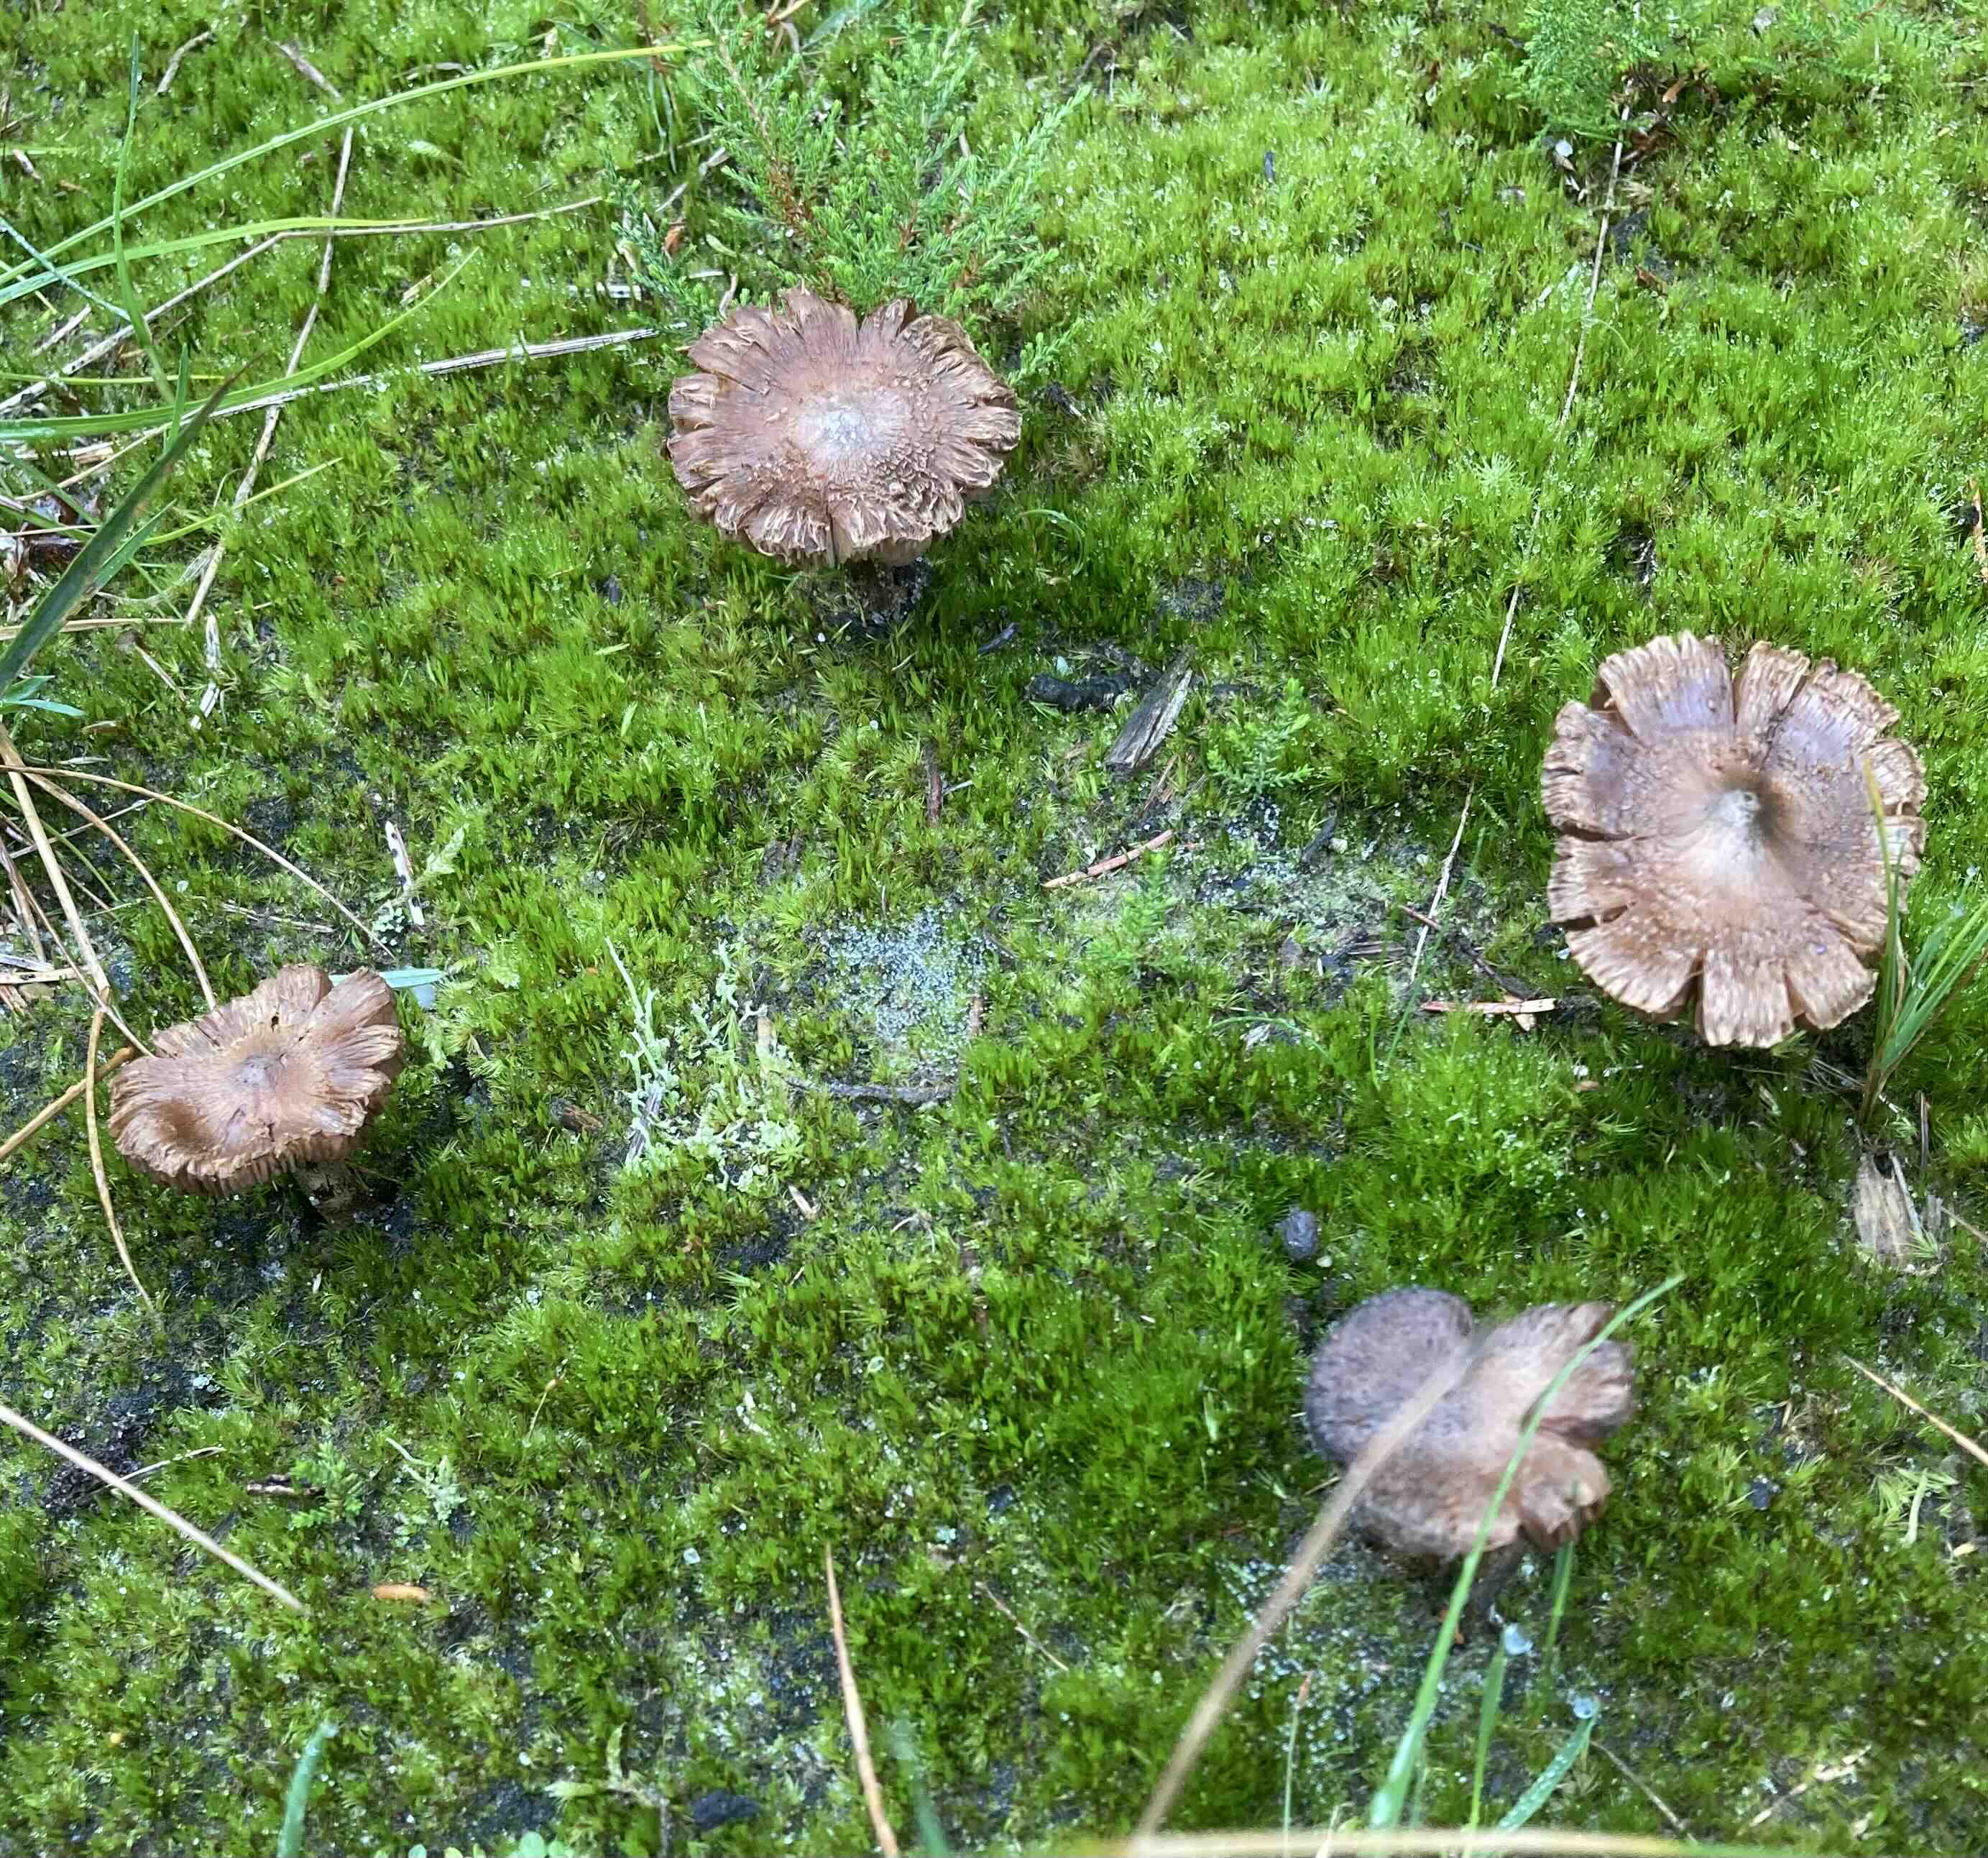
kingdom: Fungi
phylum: Basidiomycota
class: Agaricomycetes
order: Agaricales
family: Inocybaceae
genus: Inocybe
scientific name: Inocybe
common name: trævlhat
